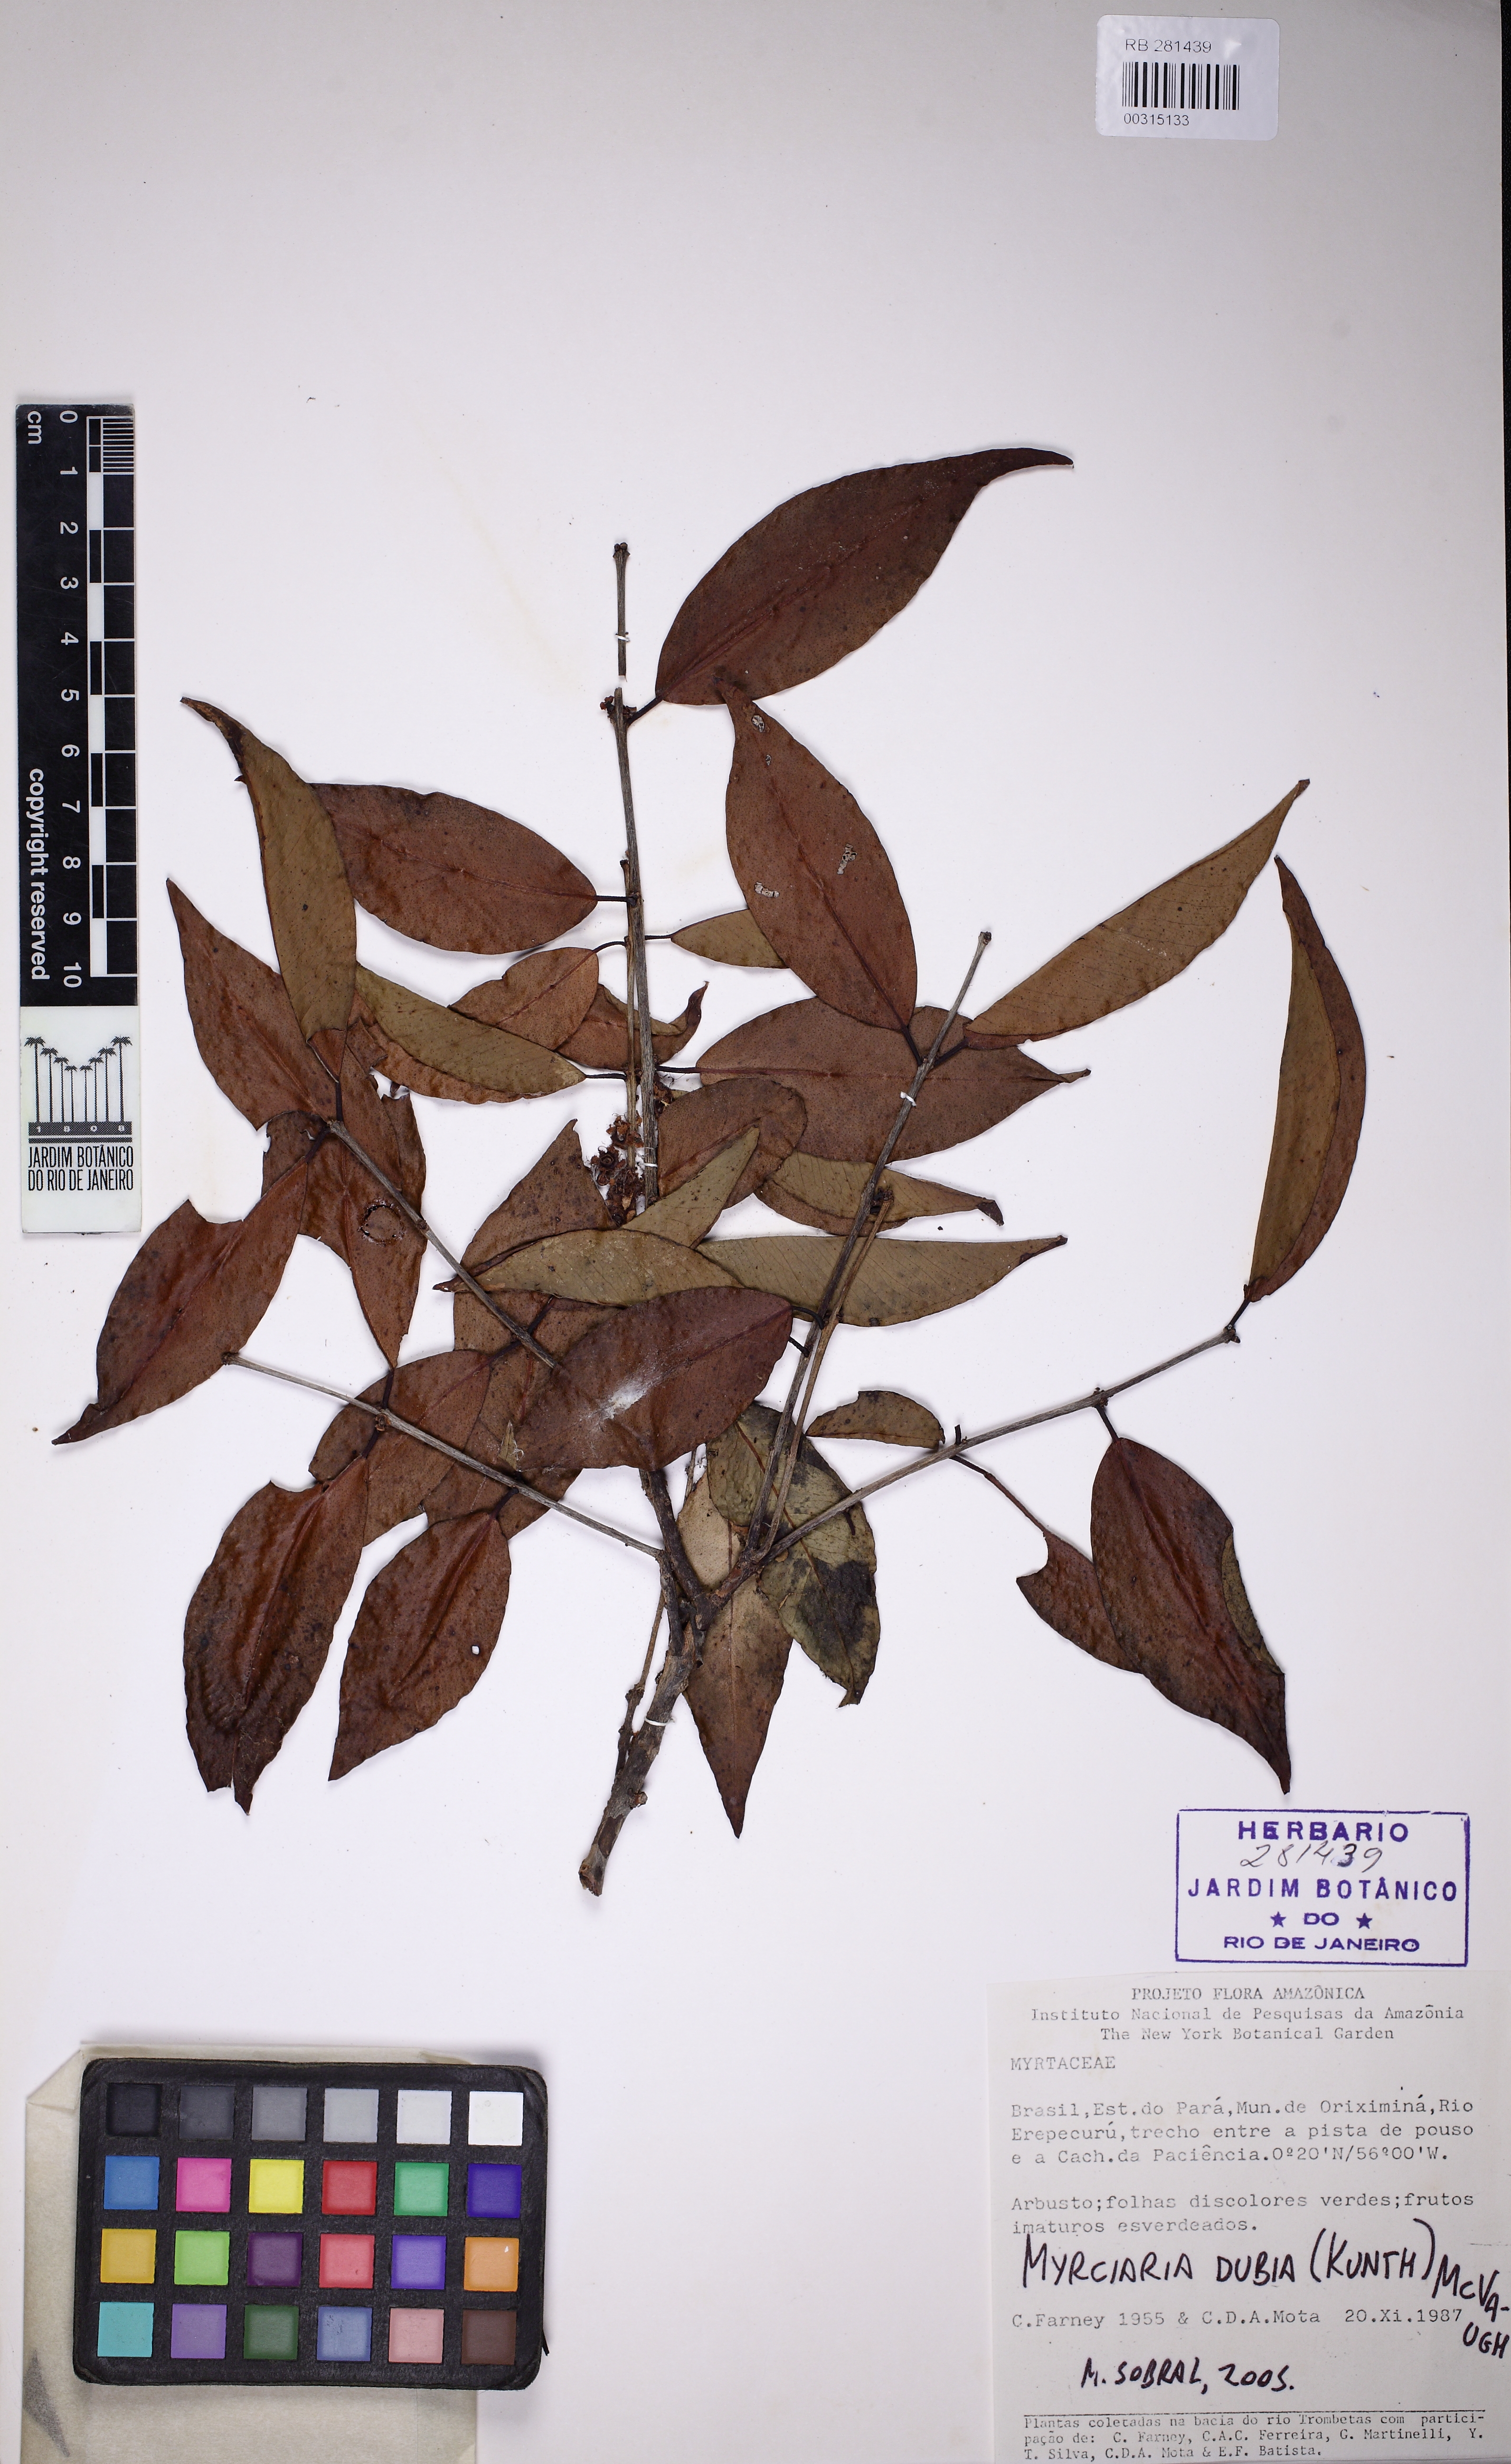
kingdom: Plantae
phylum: Tracheophyta
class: Magnoliopsida
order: Myrtales
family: Myrtaceae
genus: Myrciaria
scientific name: Myrciaria dubia
